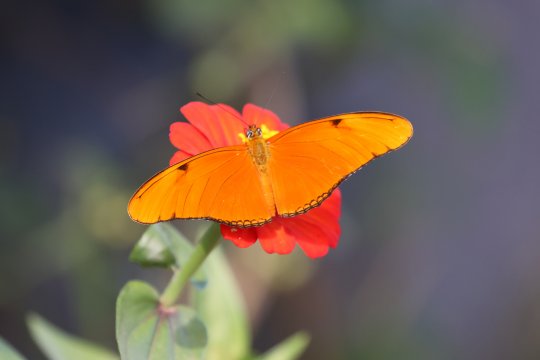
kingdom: Animalia
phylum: Arthropoda
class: Insecta
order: Lepidoptera
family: Nymphalidae
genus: Dryas
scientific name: Dryas iulia
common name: Julia
